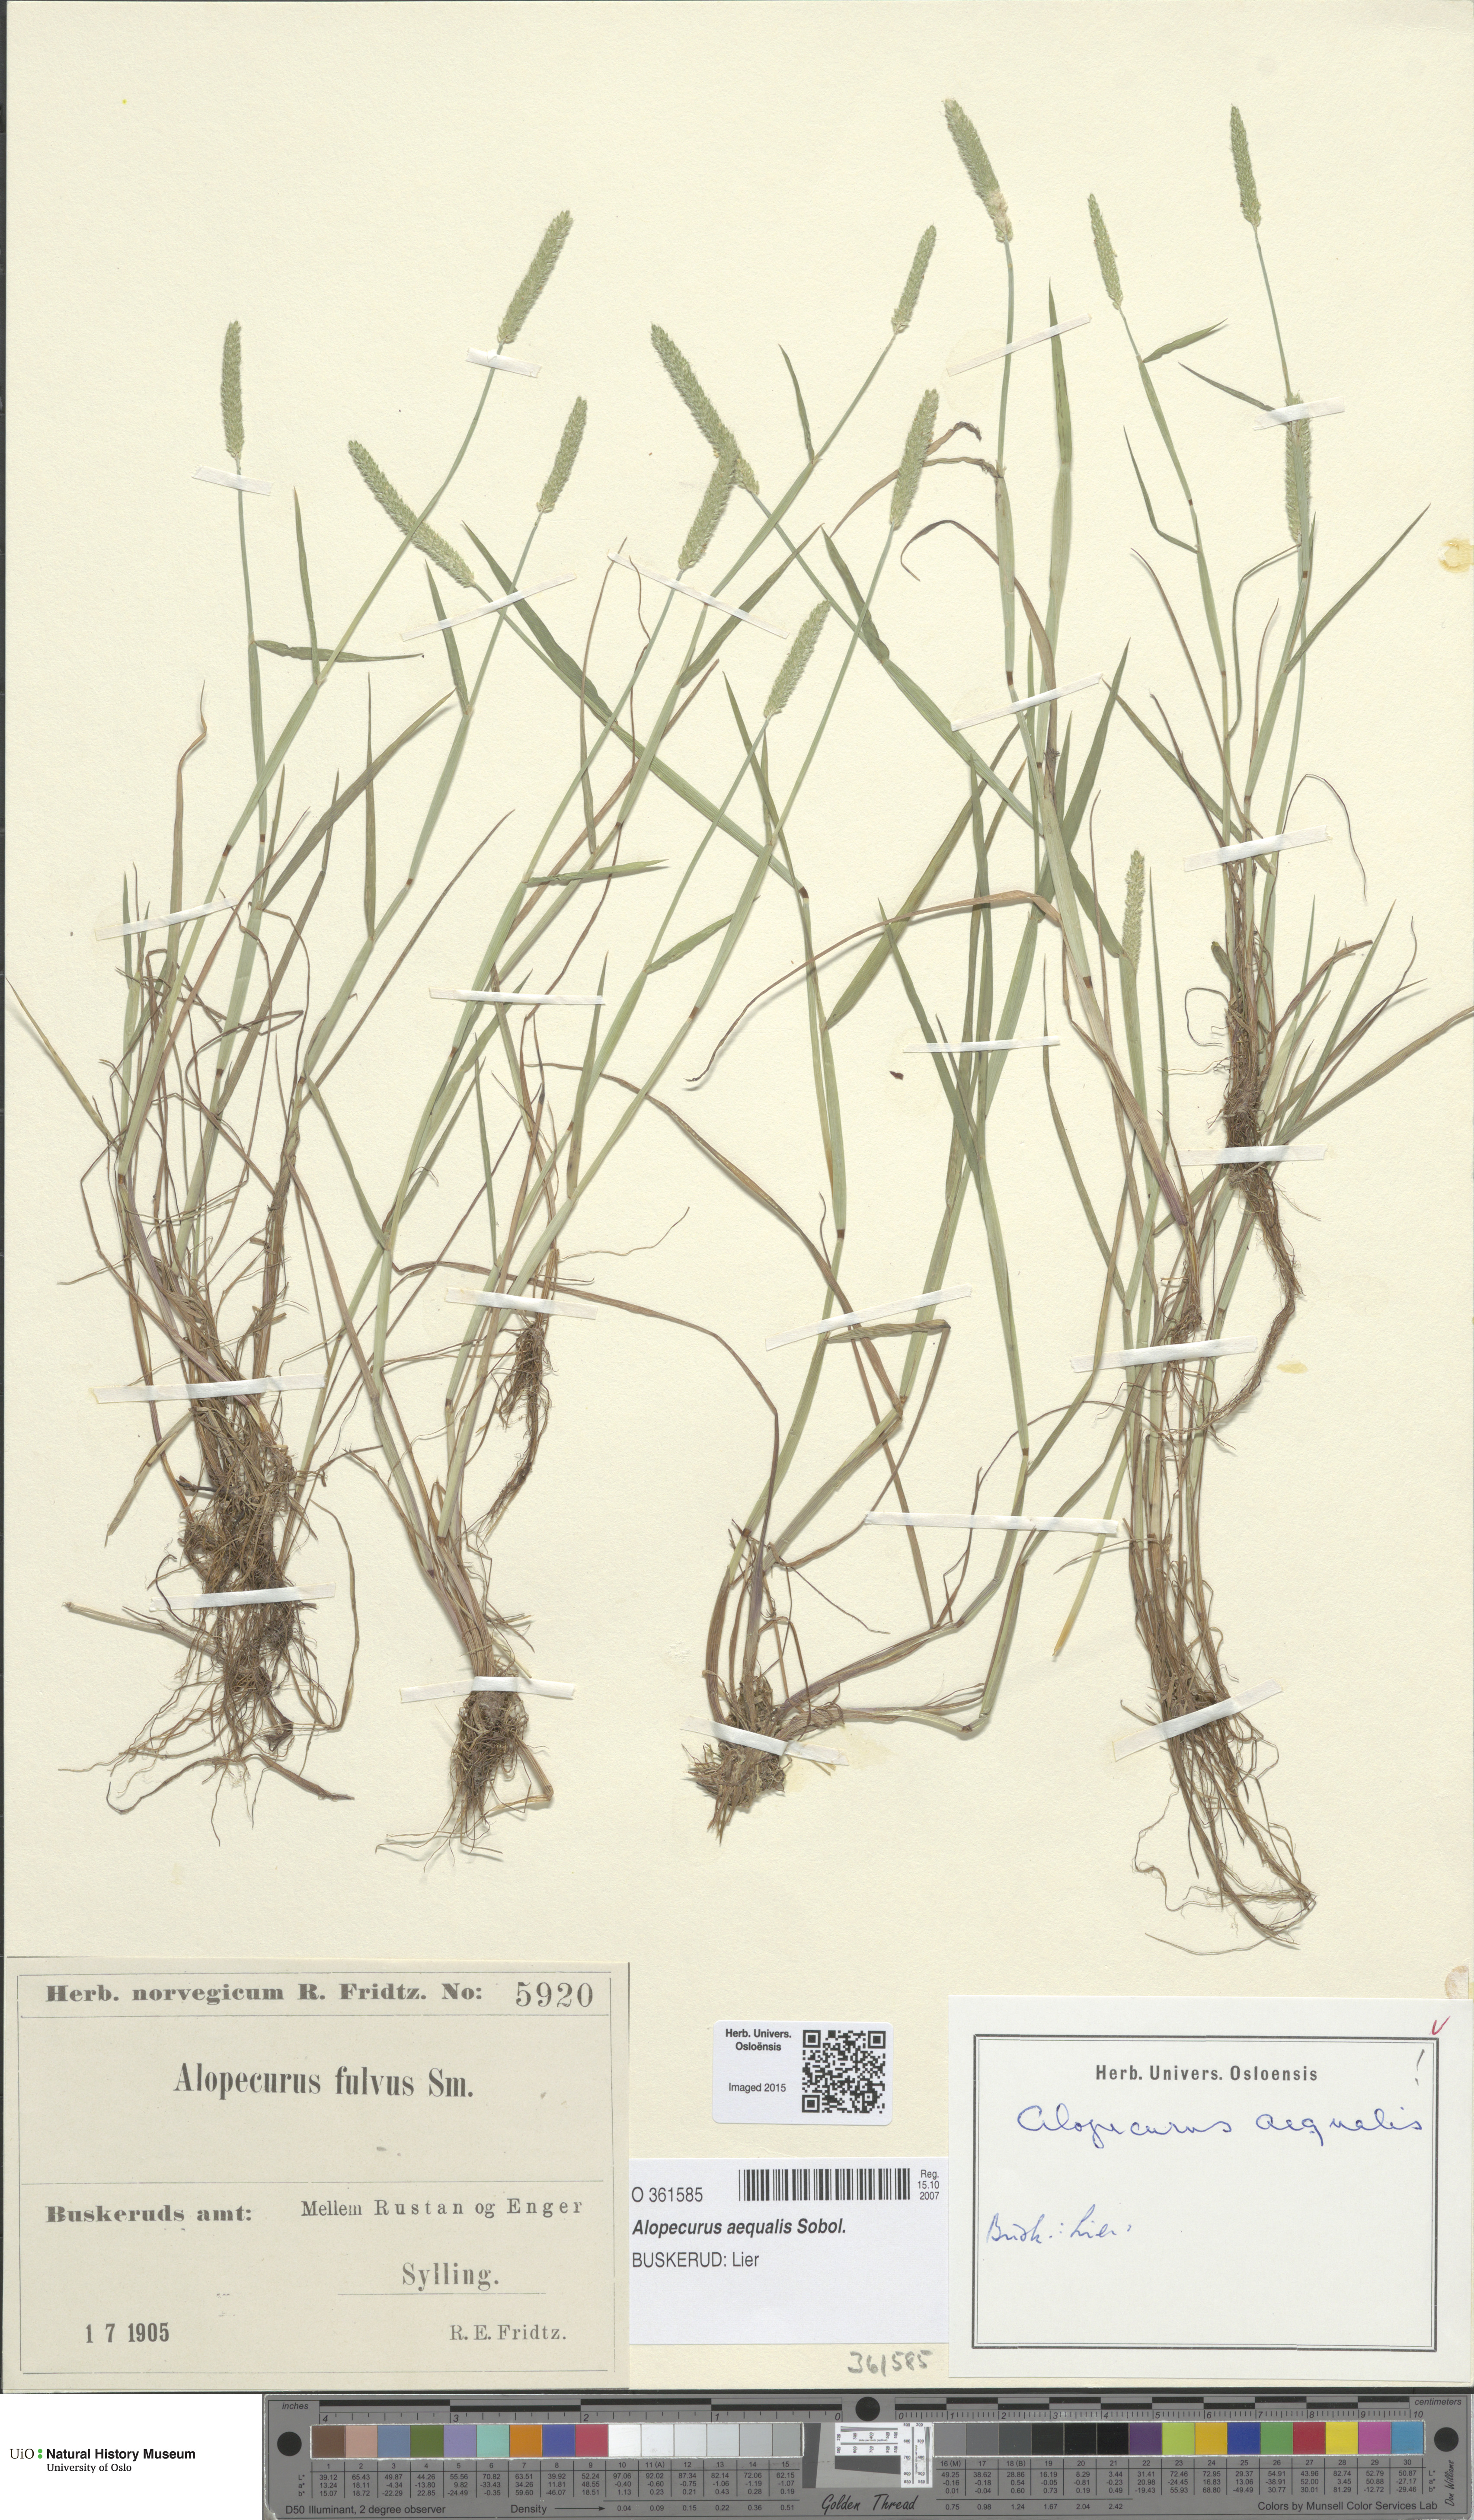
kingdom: Plantae
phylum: Tracheophyta
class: Liliopsida
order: Poales
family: Poaceae
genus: Alopecurus
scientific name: Alopecurus aequalis
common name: Orange foxtail
